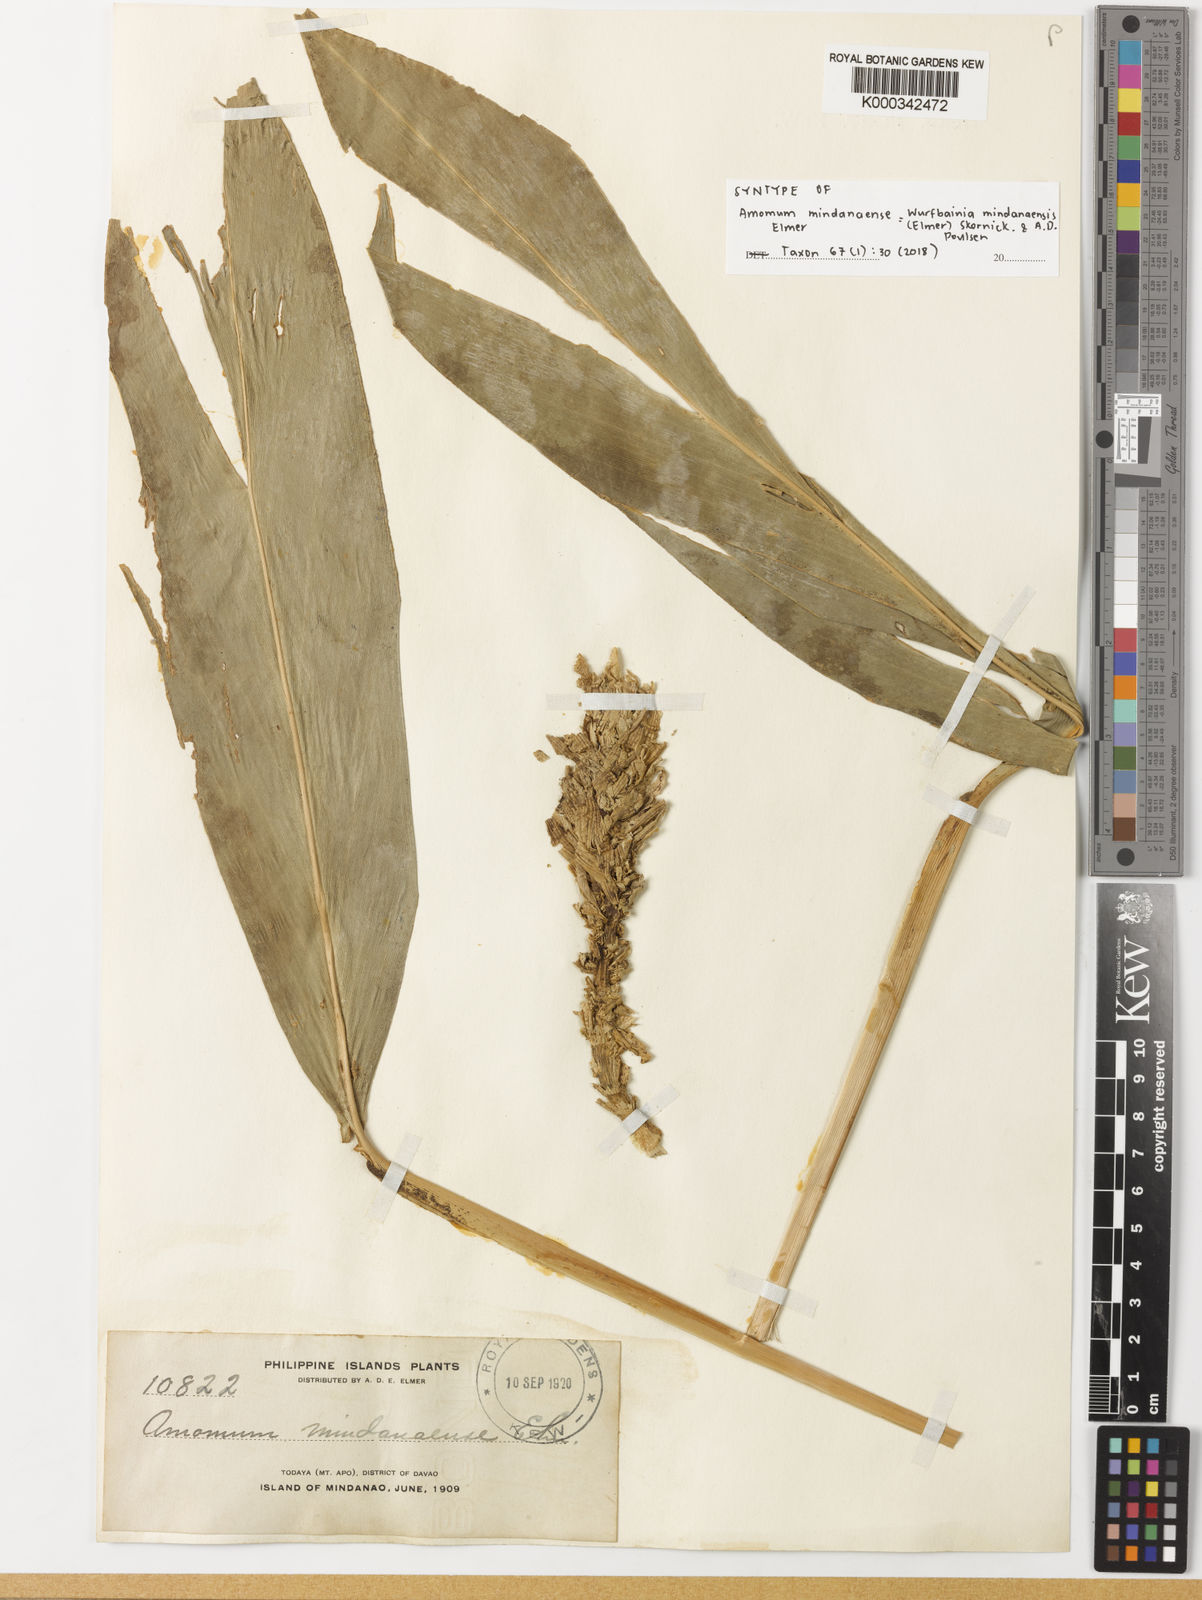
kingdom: Plantae
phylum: Tracheophyta
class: Liliopsida
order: Zingiberales
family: Zingiberaceae
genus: Wurfbainia
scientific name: Wurfbainia mindanaensis
